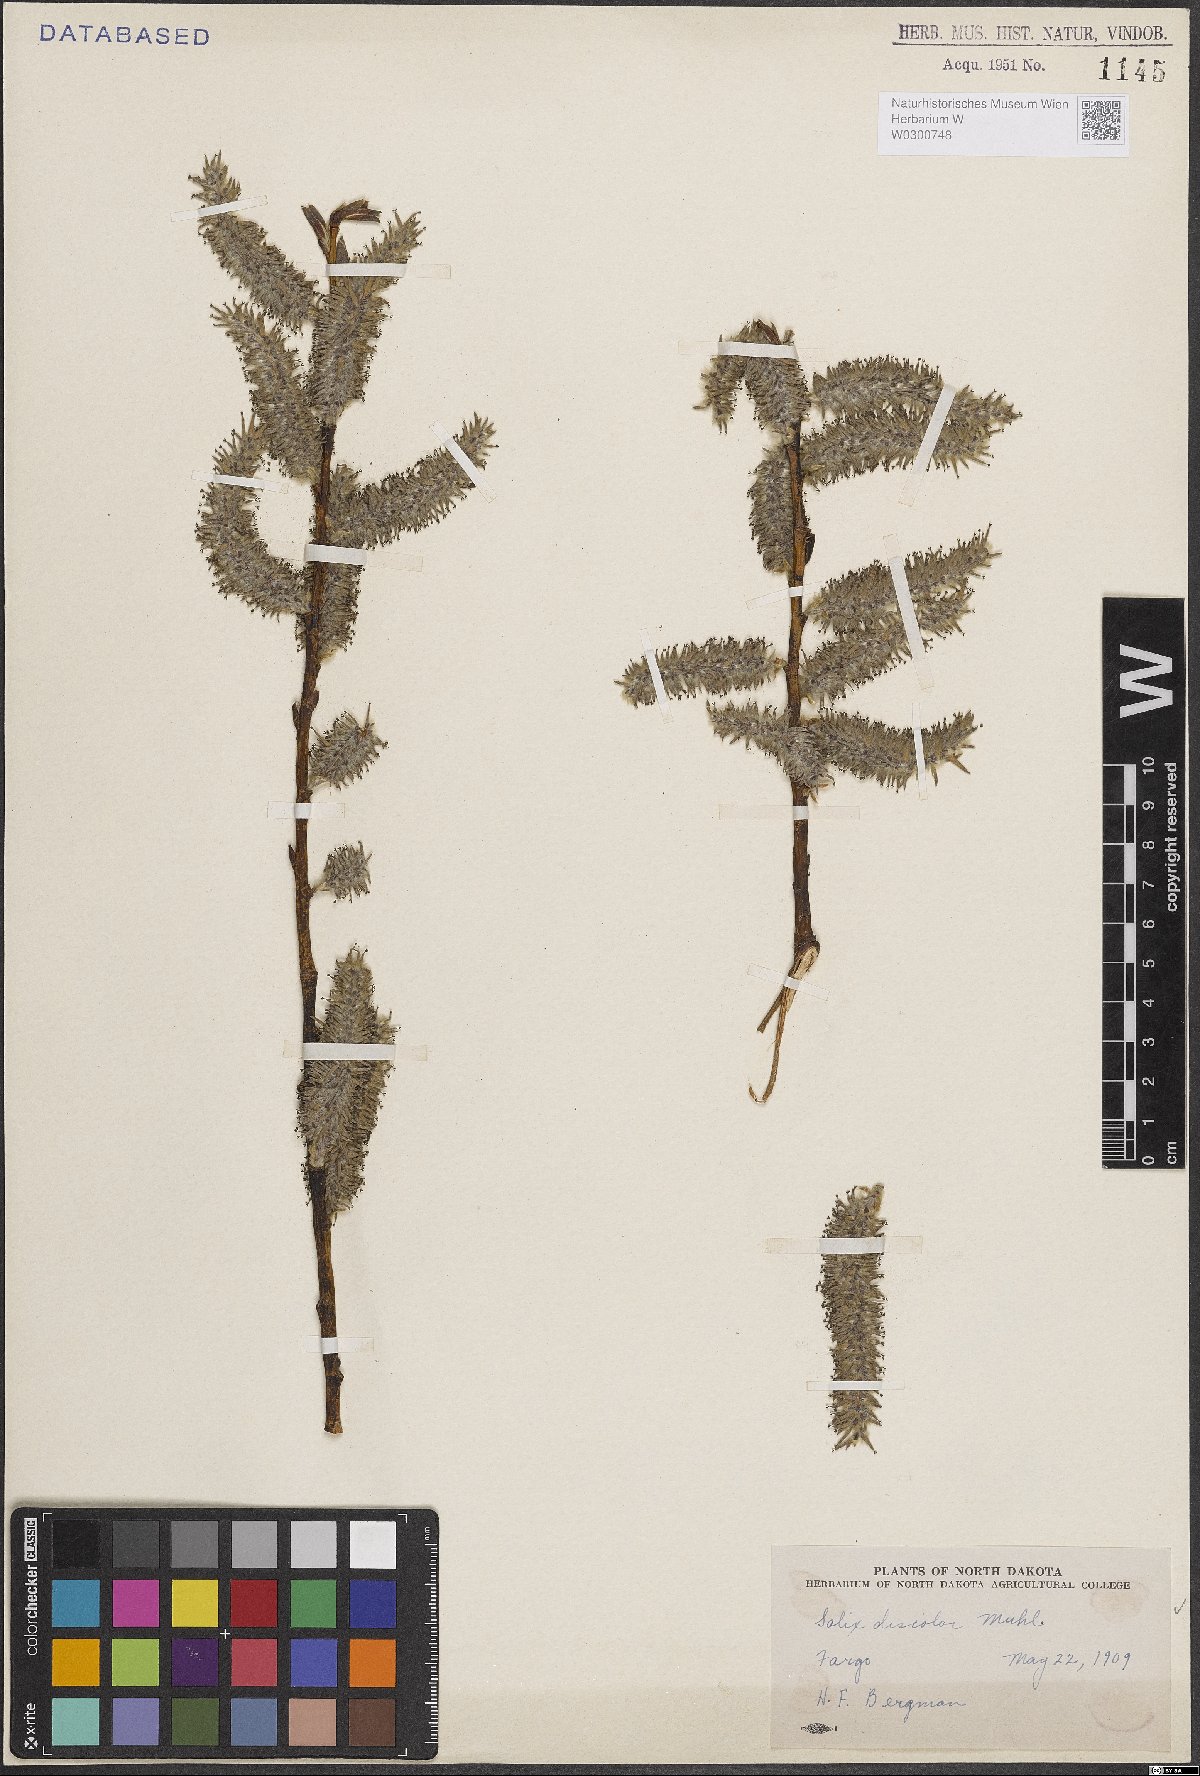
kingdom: Plantae
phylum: Tracheophyta
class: Magnoliopsida
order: Malpighiales
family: Salicaceae
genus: Salix
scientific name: Salix discolor
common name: Glaucous willow
